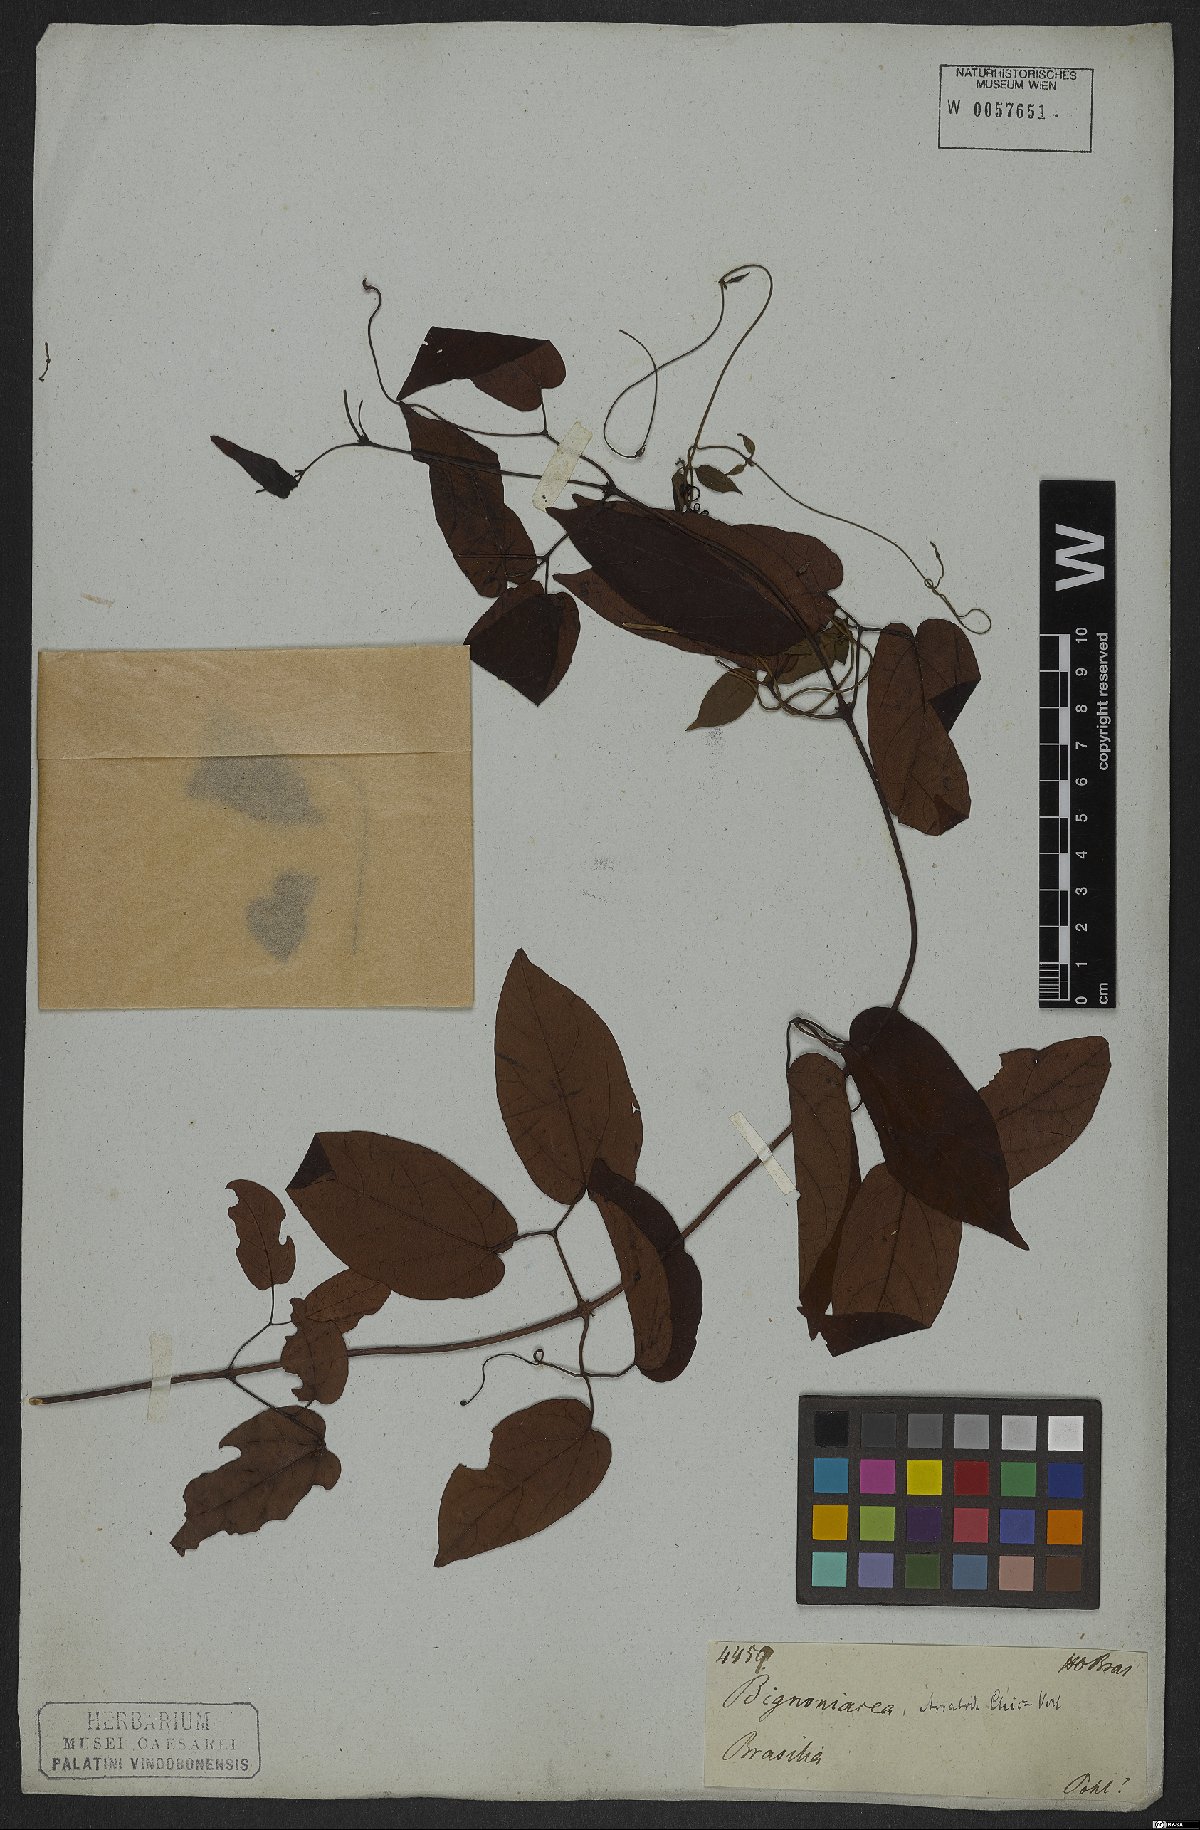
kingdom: Plantae
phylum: Tracheophyta
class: Magnoliopsida
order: Lamiales
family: Bignoniaceae
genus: Fridericia
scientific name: Fridericia chica
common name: Cricketvine
